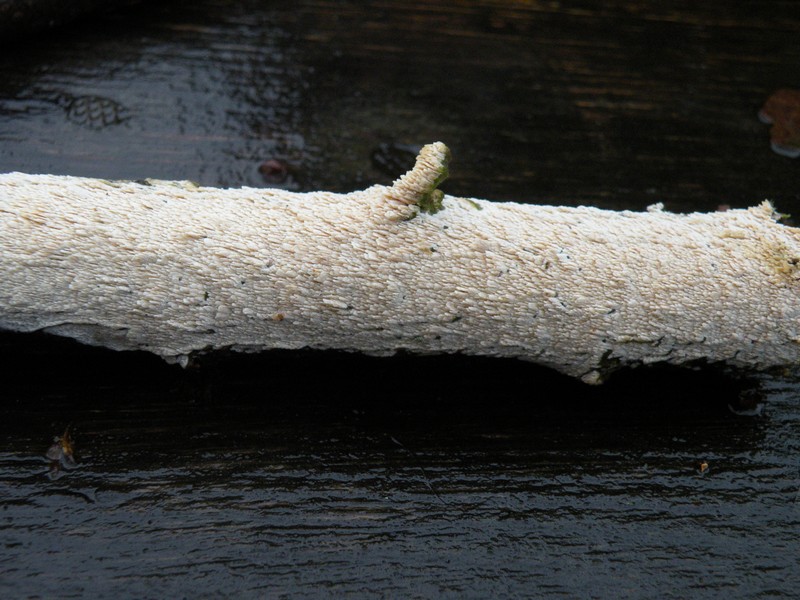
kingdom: Fungi
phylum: Basidiomycota
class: Agaricomycetes
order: Hymenochaetales
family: Schizoporaceae
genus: Schizopora
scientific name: Schizopora paradoxa
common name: hvid tandsvamp
